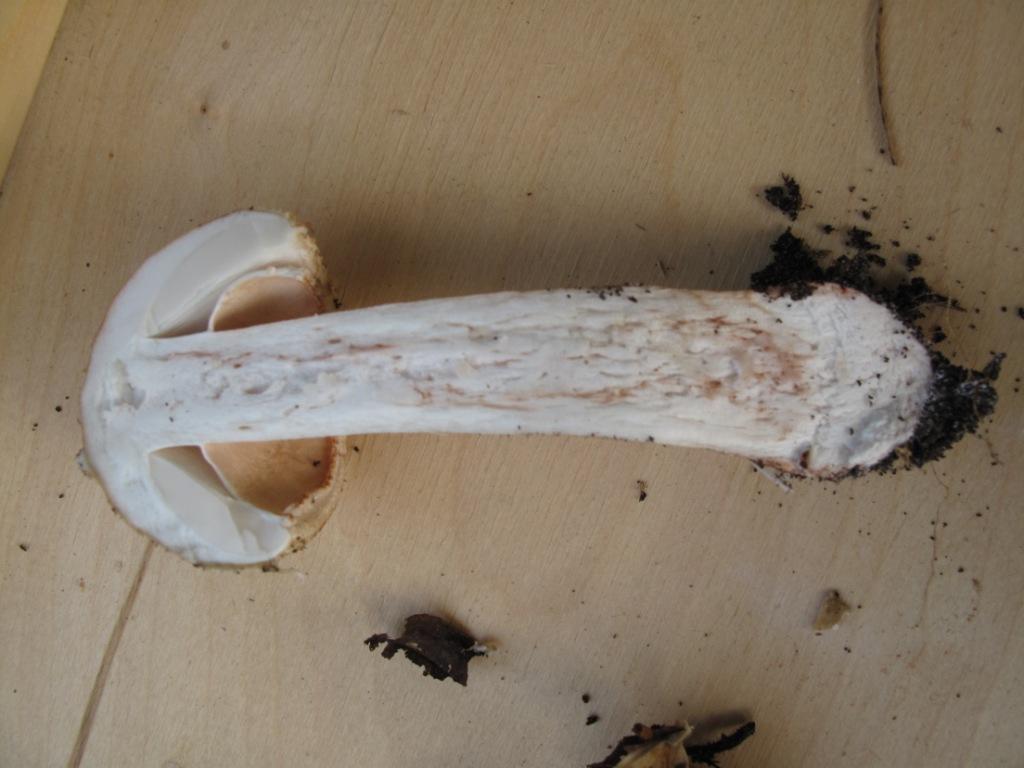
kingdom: Fungi
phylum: Basidiomycota
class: Agaricomycetes
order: Agaricales
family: Amanitaceae
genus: Amanita
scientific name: Amanita rubescens
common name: rødmende fluesvamp
